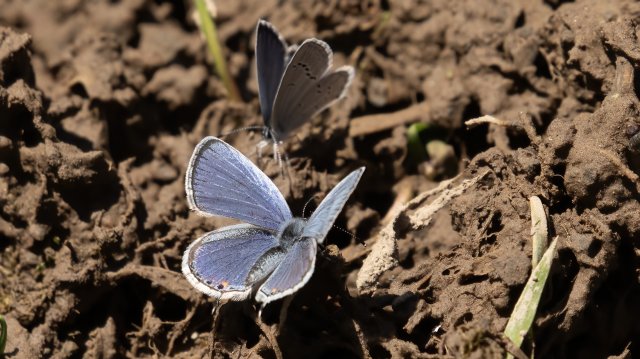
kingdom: Animalia
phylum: Arthropoda
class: Insecta
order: Lepidoptera
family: Lycaenidae
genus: Elkalyce
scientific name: Elkalyce comyntas
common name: Eastern Tailed-Blue
